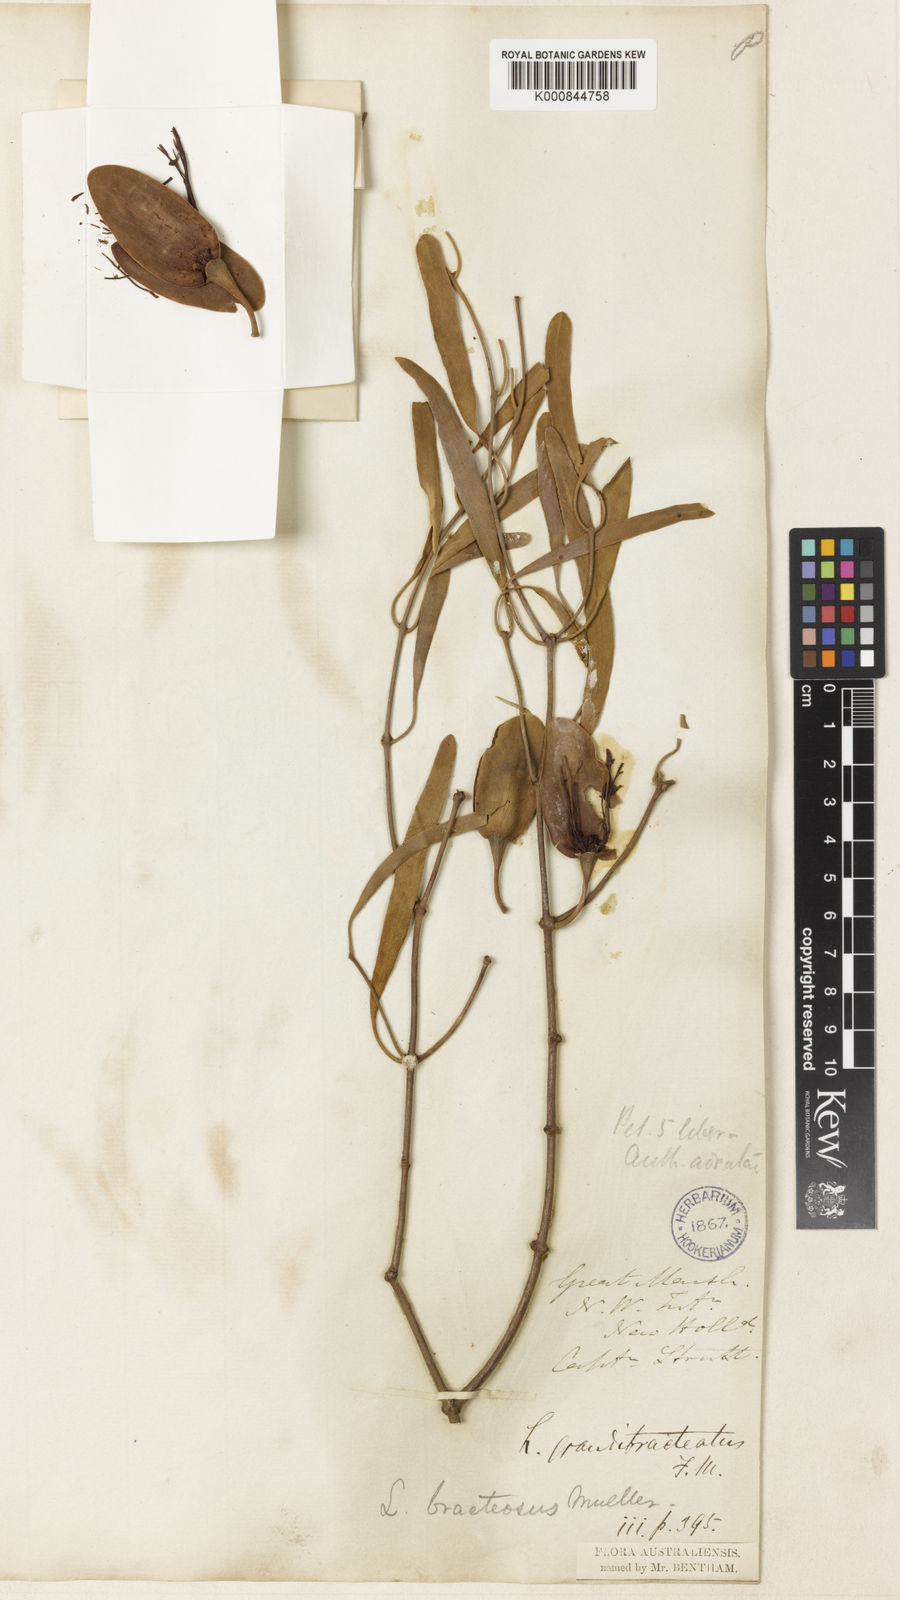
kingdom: Plantae
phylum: Tracheophyta
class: Magnoliopsida
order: Santalales
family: Loranthaceae
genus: Diplatia
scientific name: Diplatia grandibractea
